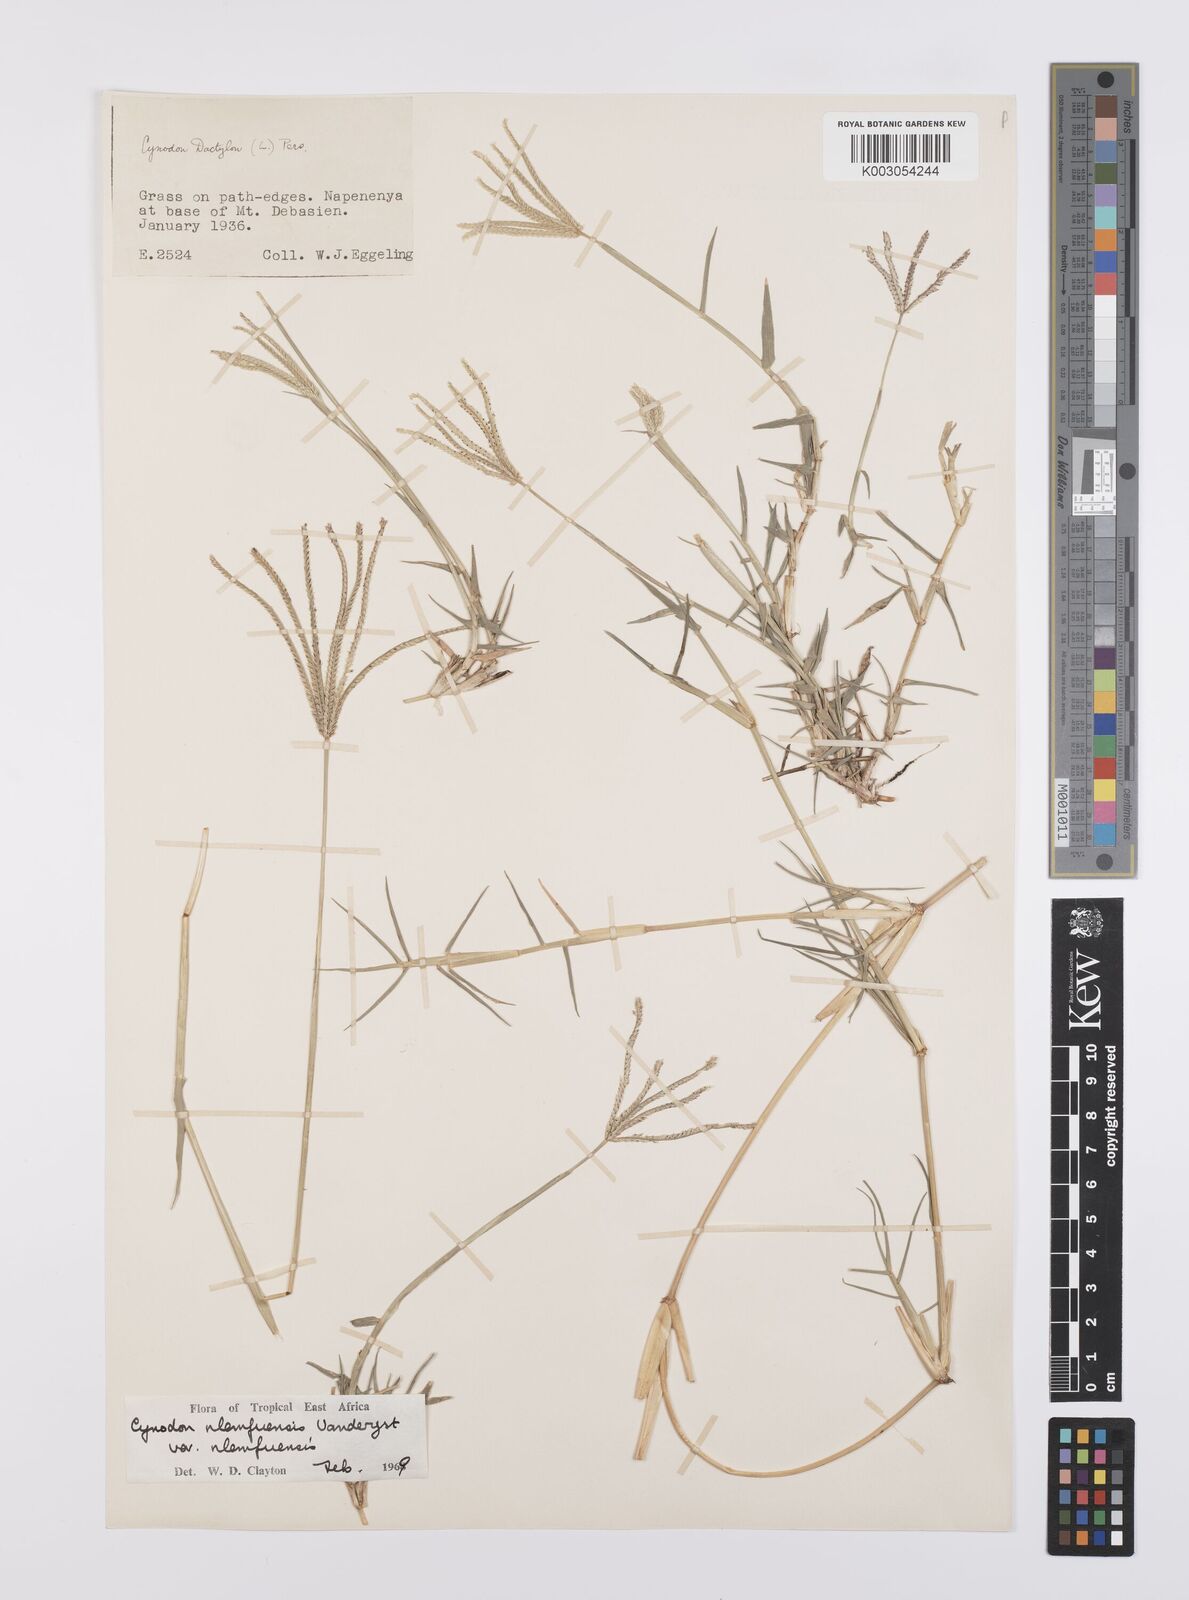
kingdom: Plantae
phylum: Tracheophyta
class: Liliopsida
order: Poales
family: Poaceae
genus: Cynodon
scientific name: Cynodon nlemfuensis
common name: African bermudagrass
